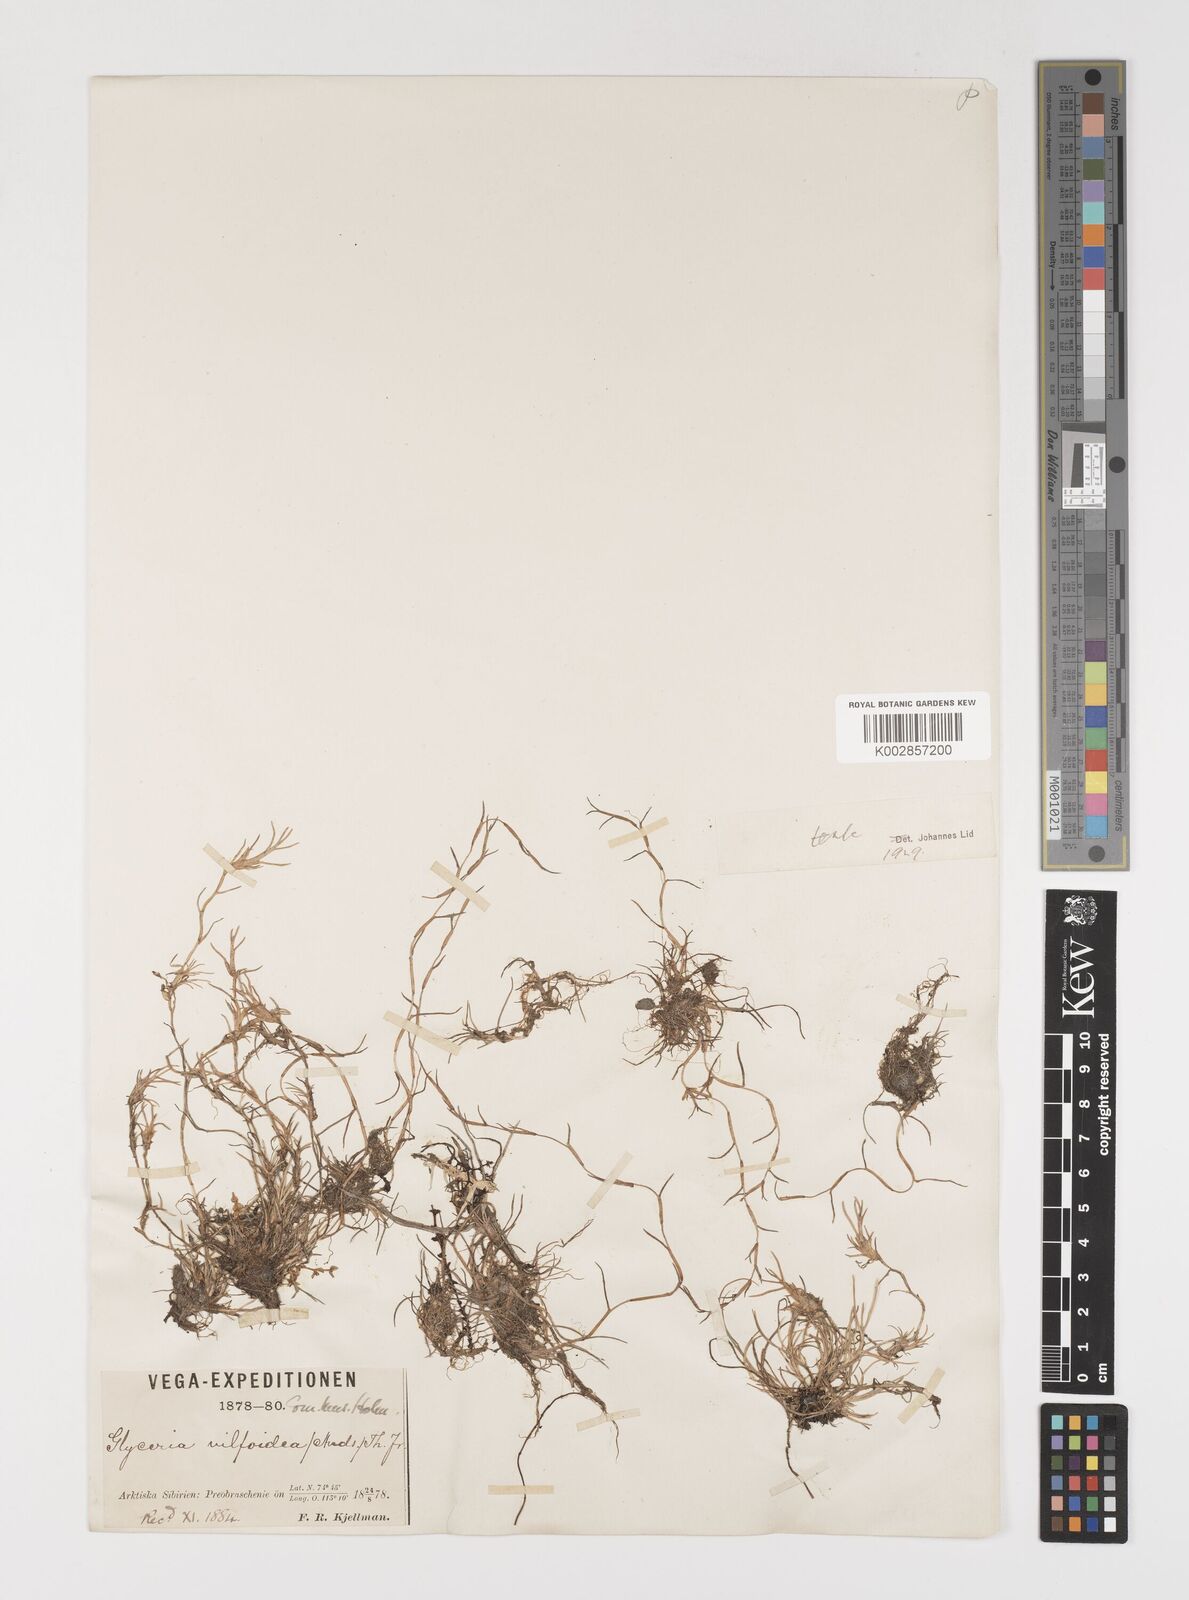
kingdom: Plantae
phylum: Tracheophyta
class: Liliopsida
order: Poales
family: Poaceae
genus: Puccinellia
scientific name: Puccinellia vahliana
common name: Vahl's alkaligrass
